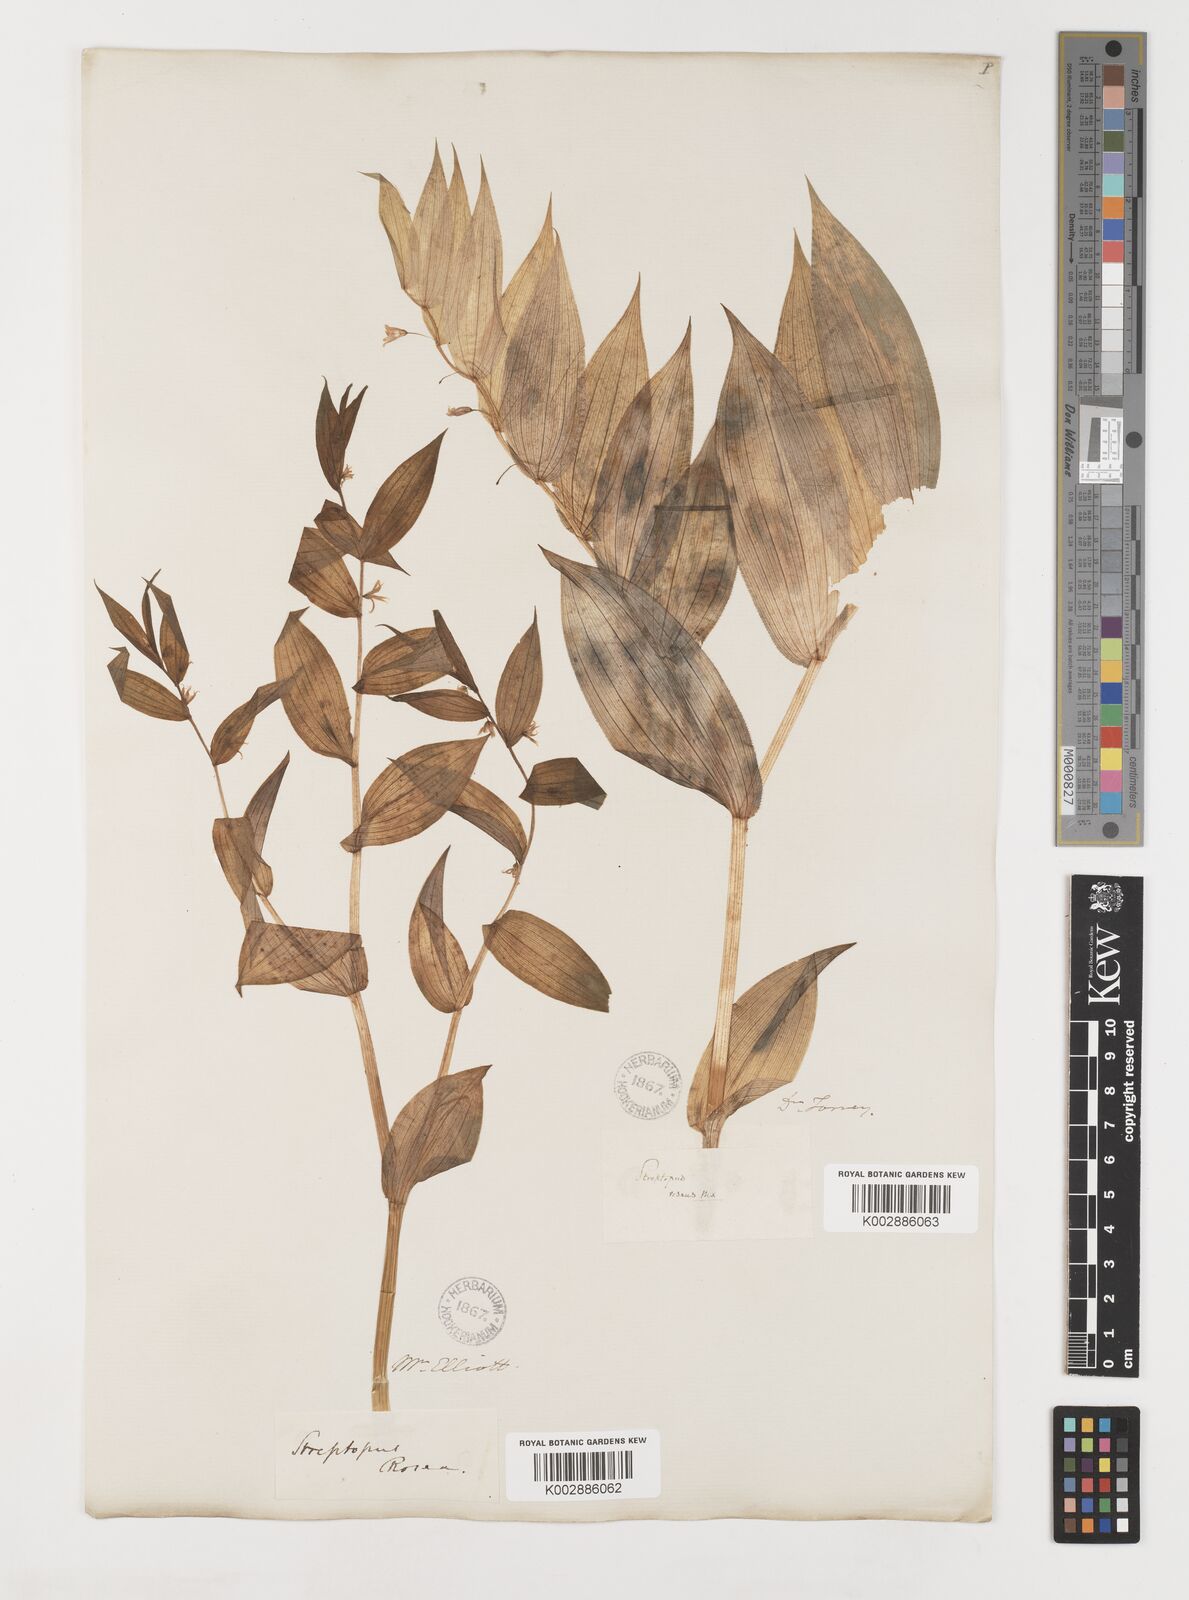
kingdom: Plantae
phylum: Tracheophyta
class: Liliopsida
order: Liliales
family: Liliaceae
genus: Streptopus
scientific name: Streptopus lanceolatus
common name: Rose mandarin
